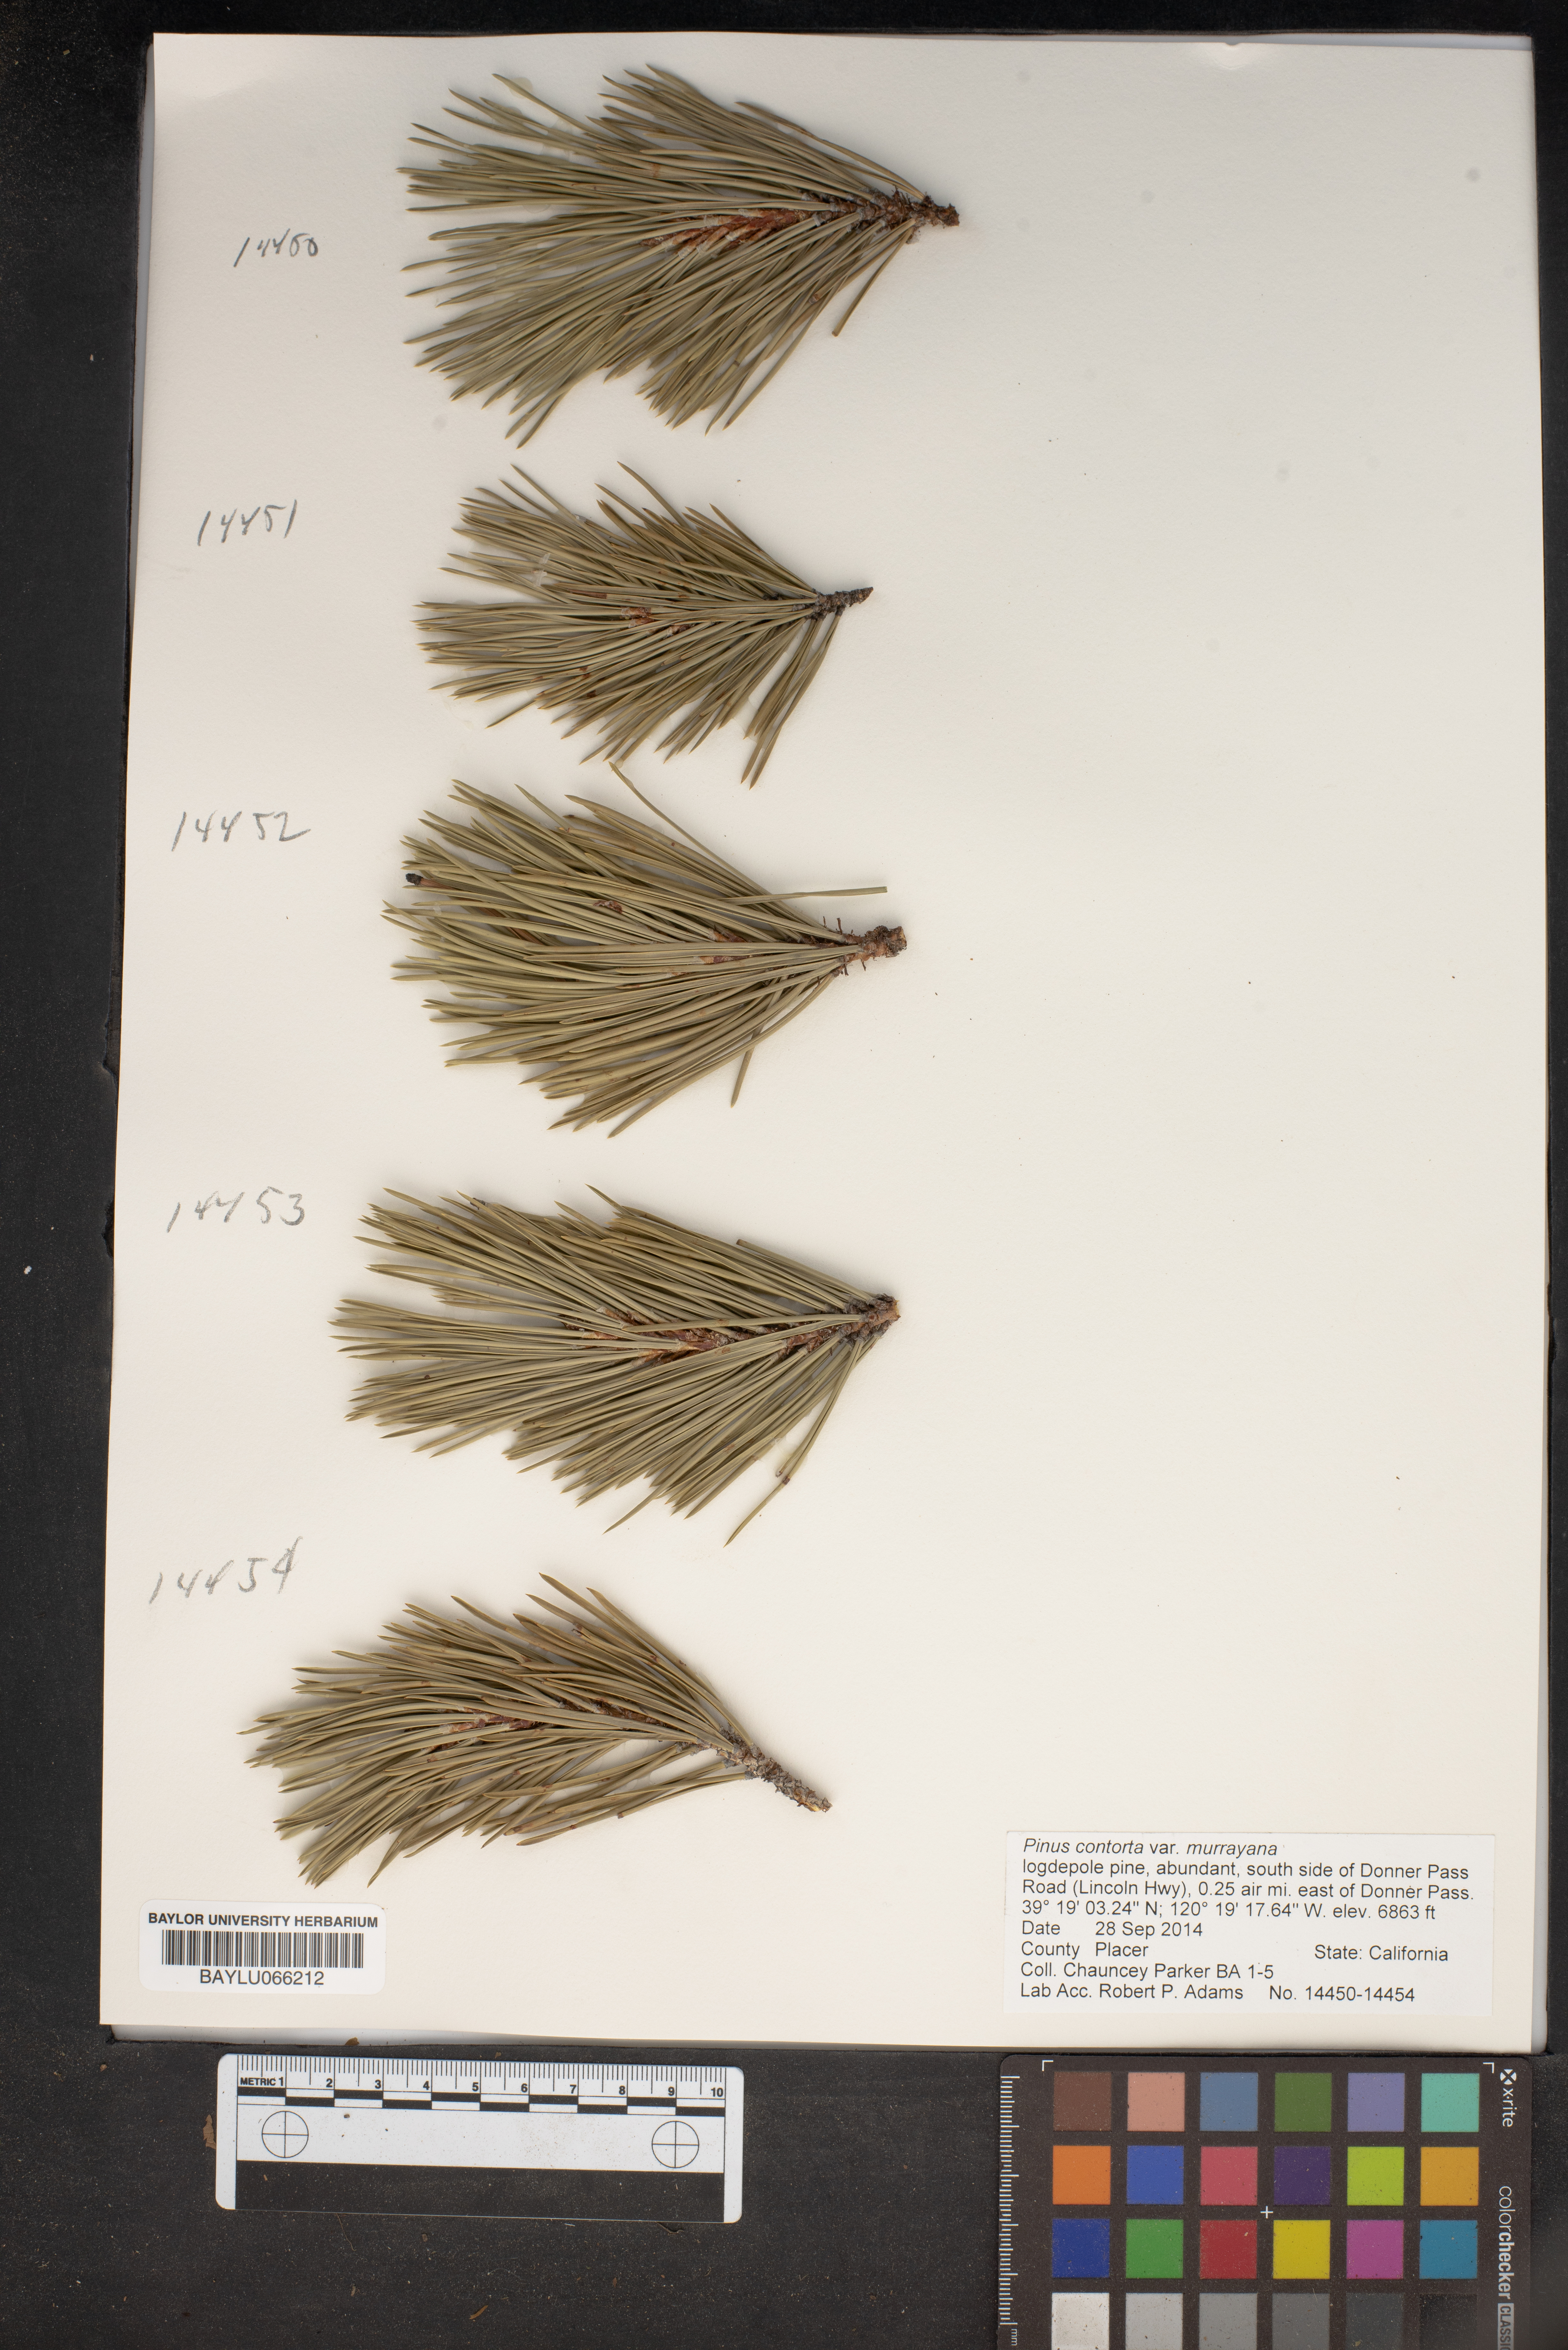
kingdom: Plantae
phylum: Tracheophyta
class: Pinopsida
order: Pinales
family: Pinaceae
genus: Pinus
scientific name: Pinus contorta
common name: Lodgepole pine
